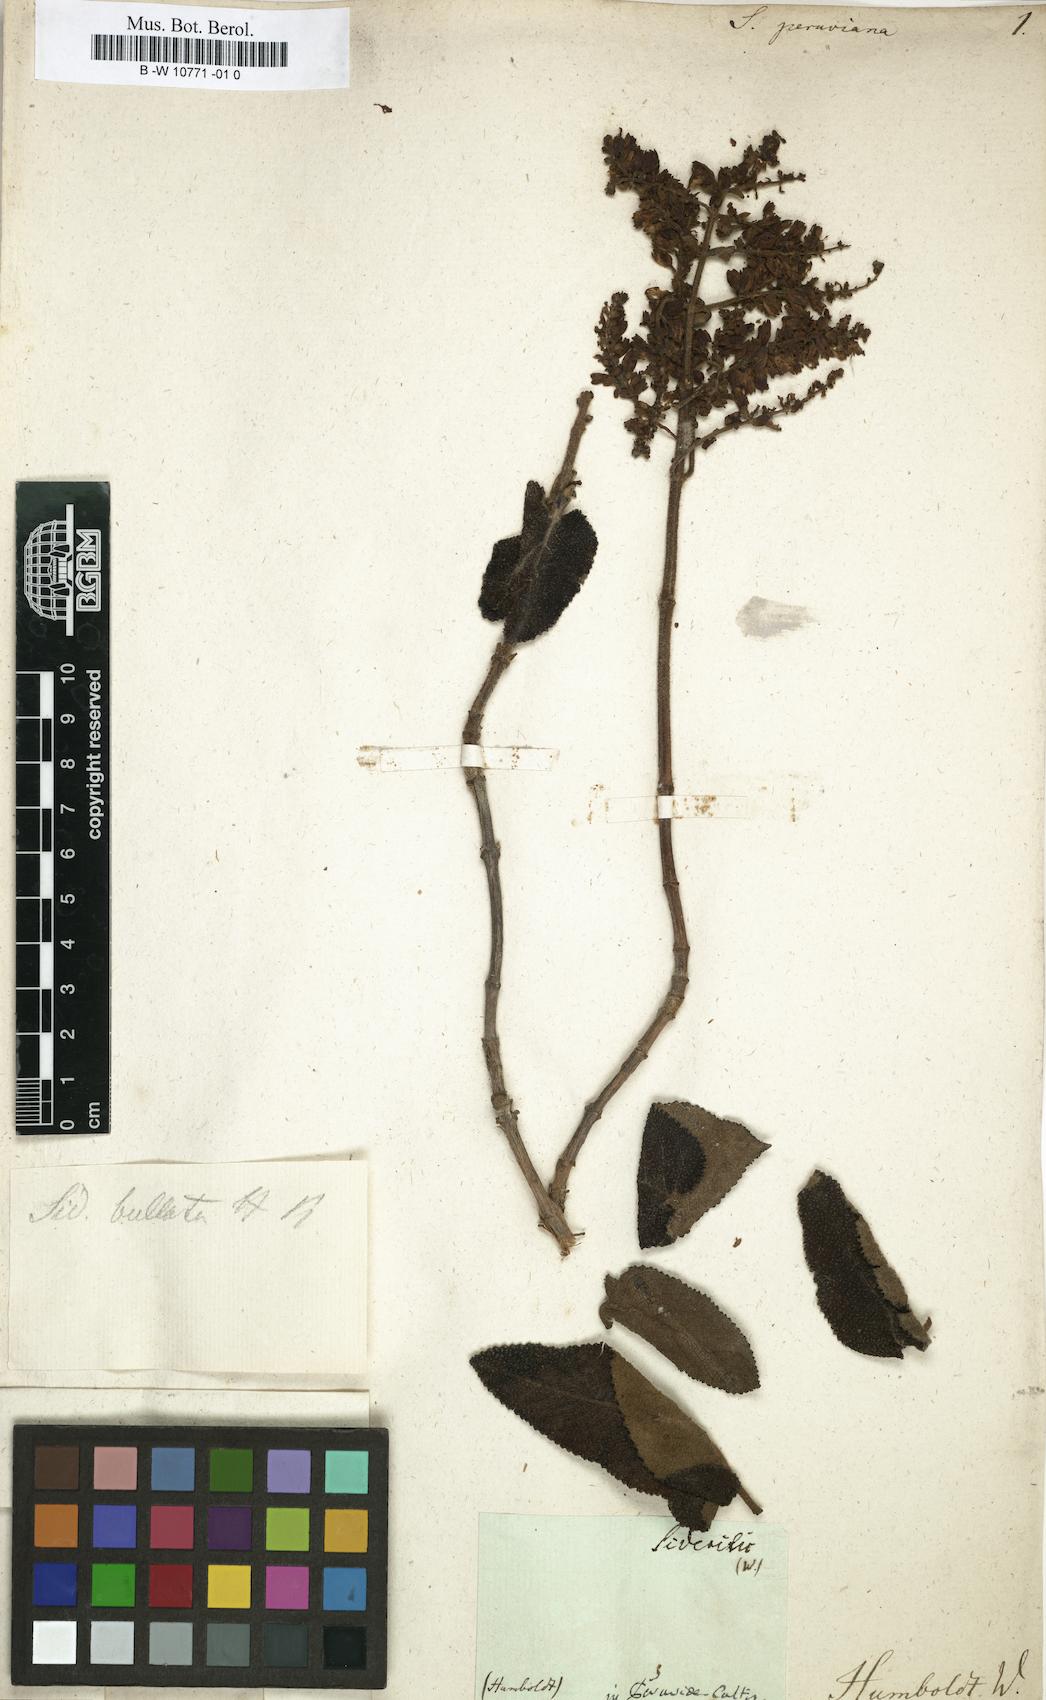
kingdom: Plantae
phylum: Tracheophyta
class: Magnoliopsida
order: Lamiales
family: Lamiaceae
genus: Sideritis
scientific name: Sideritis peruviana
